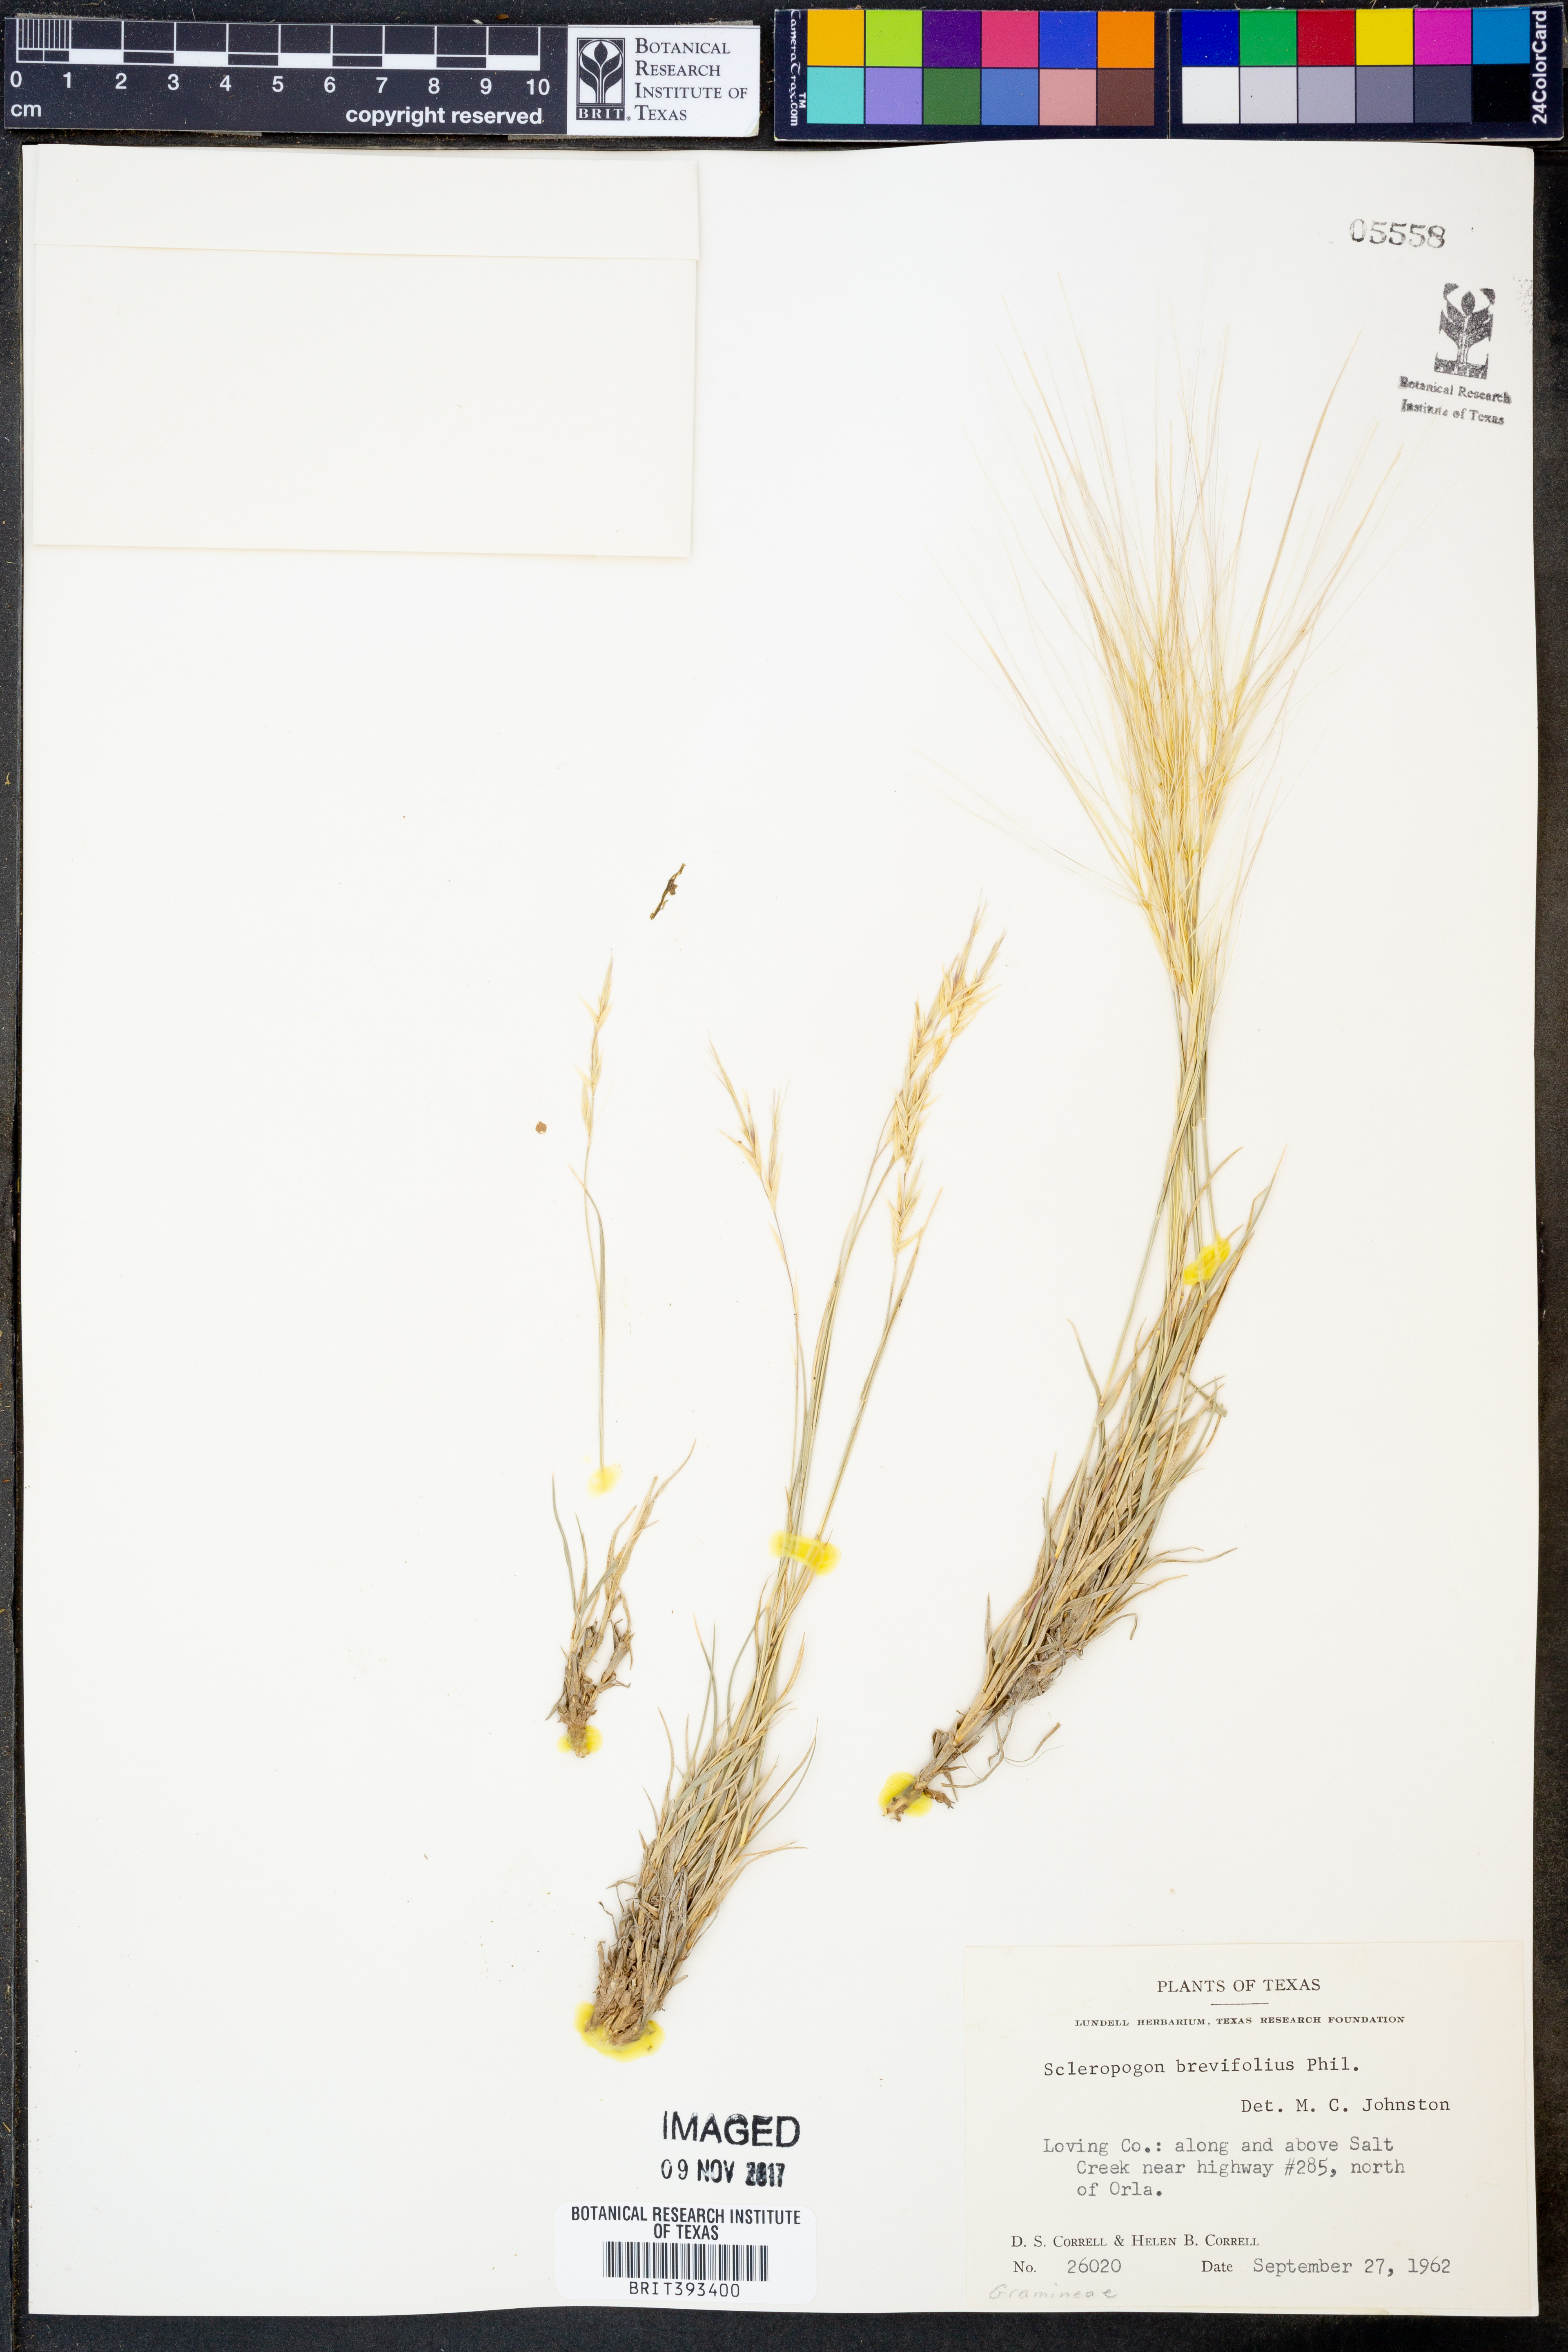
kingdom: Plantae
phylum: Tracheophyta
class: Liliopsida
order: Poales
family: Poaceae
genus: Scleropogon
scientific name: Scleropogon brevifolius
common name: Burro grass
